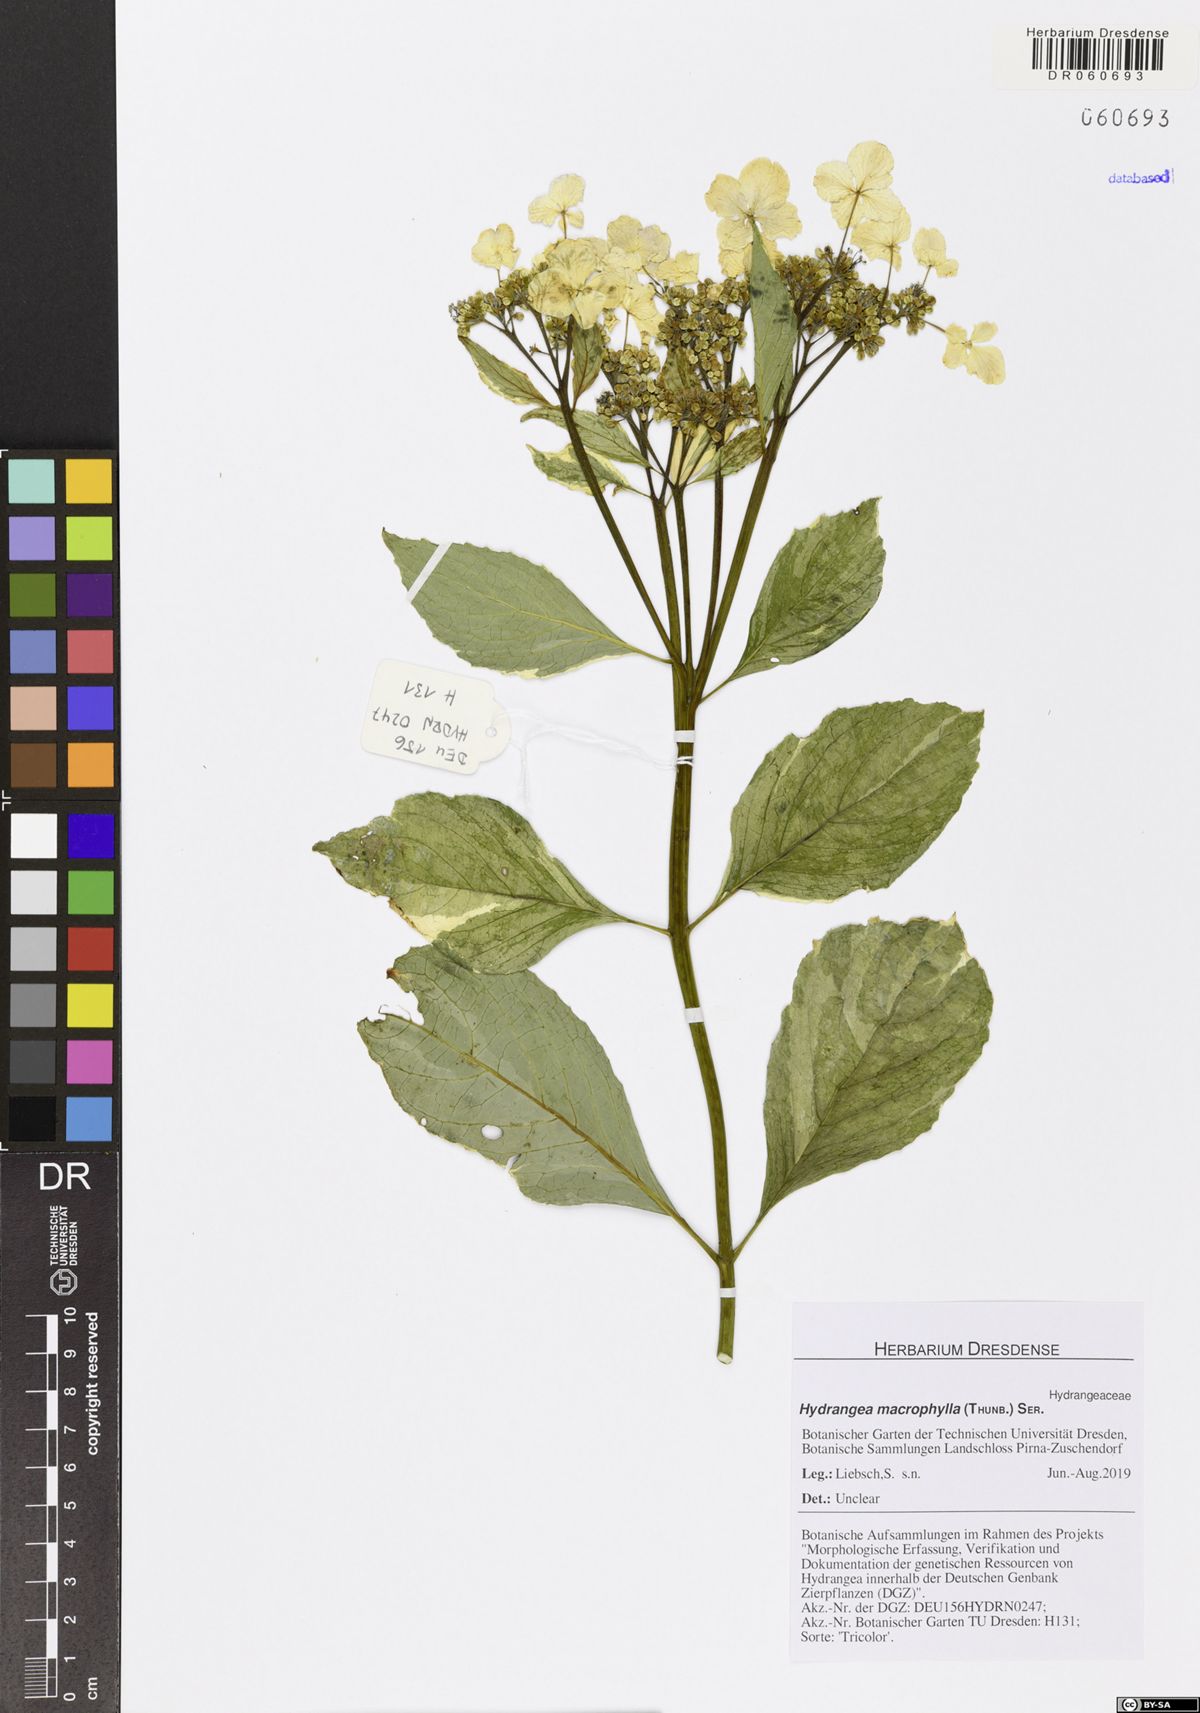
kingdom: Plantae
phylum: Tracheophyta
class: Magnoliopsida
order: Cornales
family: Hydrangeaceae
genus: Hydrangea
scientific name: Hydrangea macrophylla
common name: Hydrangea
